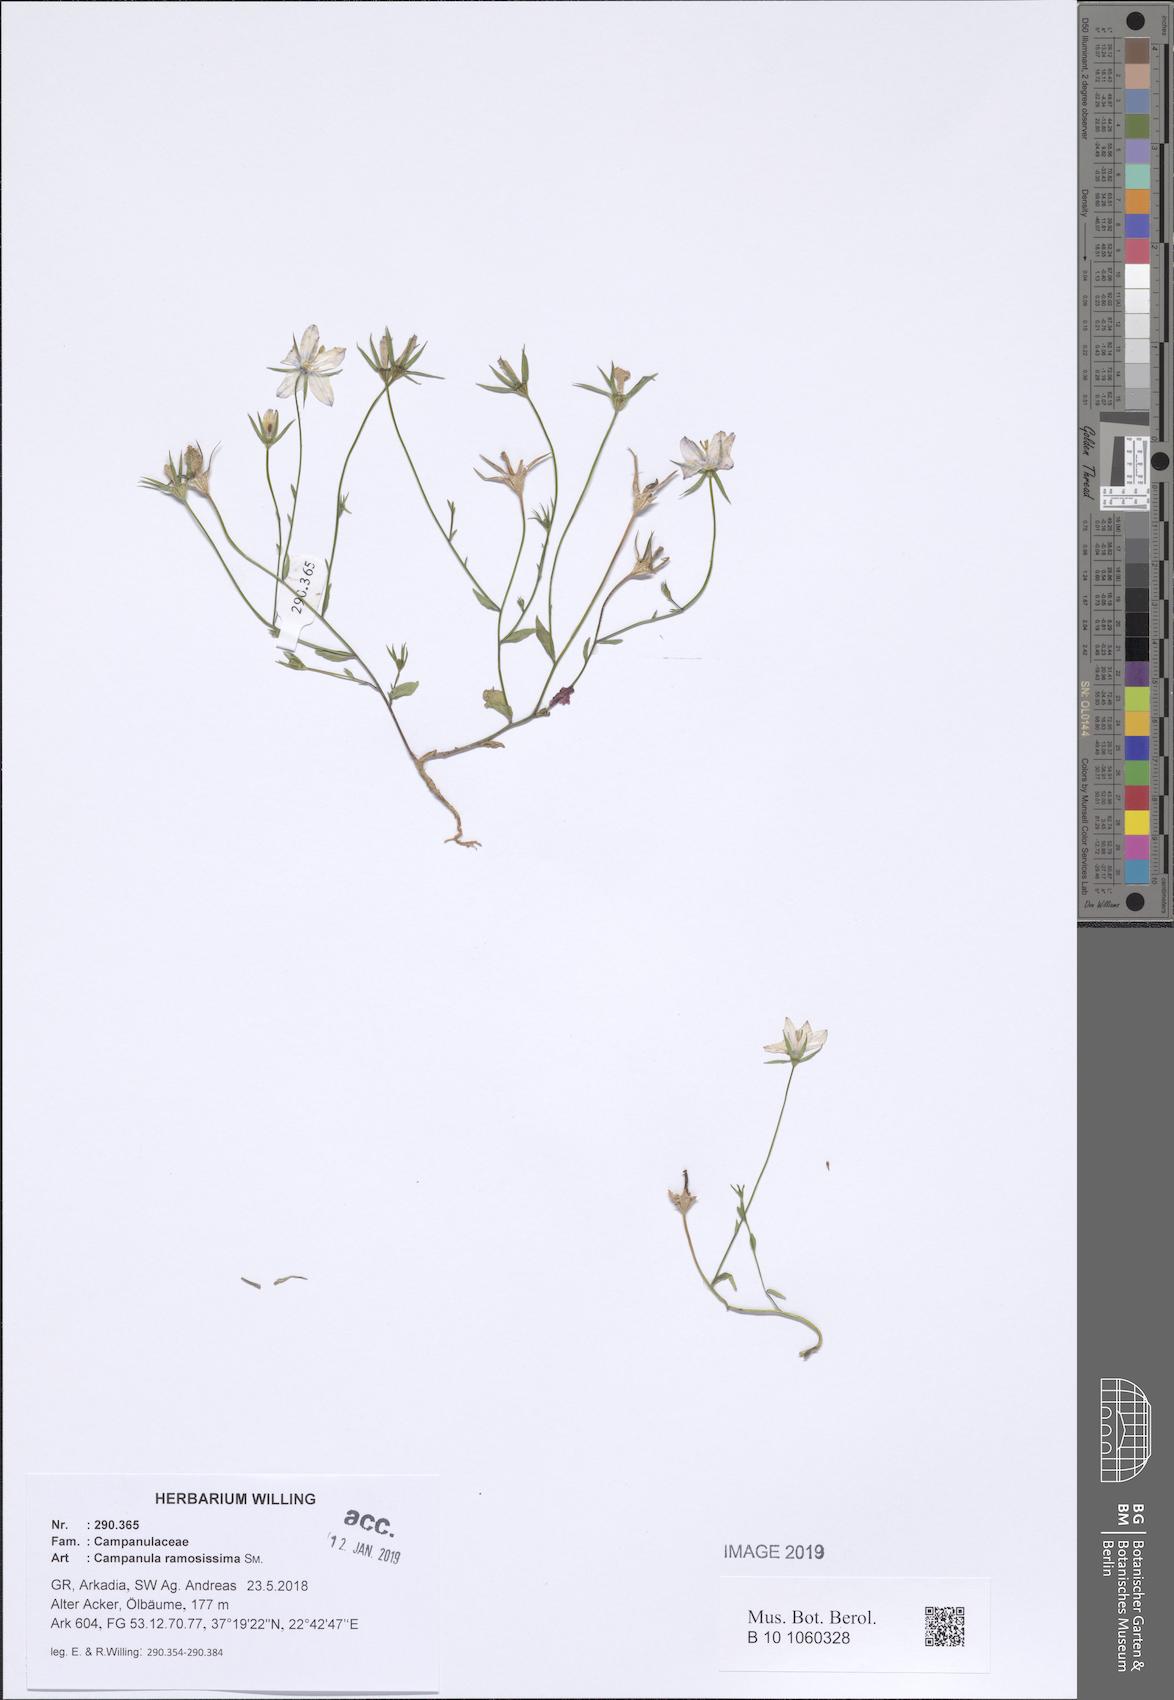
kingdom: Plantae
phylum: Tracheophyta
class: Magnoliopsida
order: Asterales
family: Campanulaceae
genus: Campanula
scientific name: Campanula ramosissima
